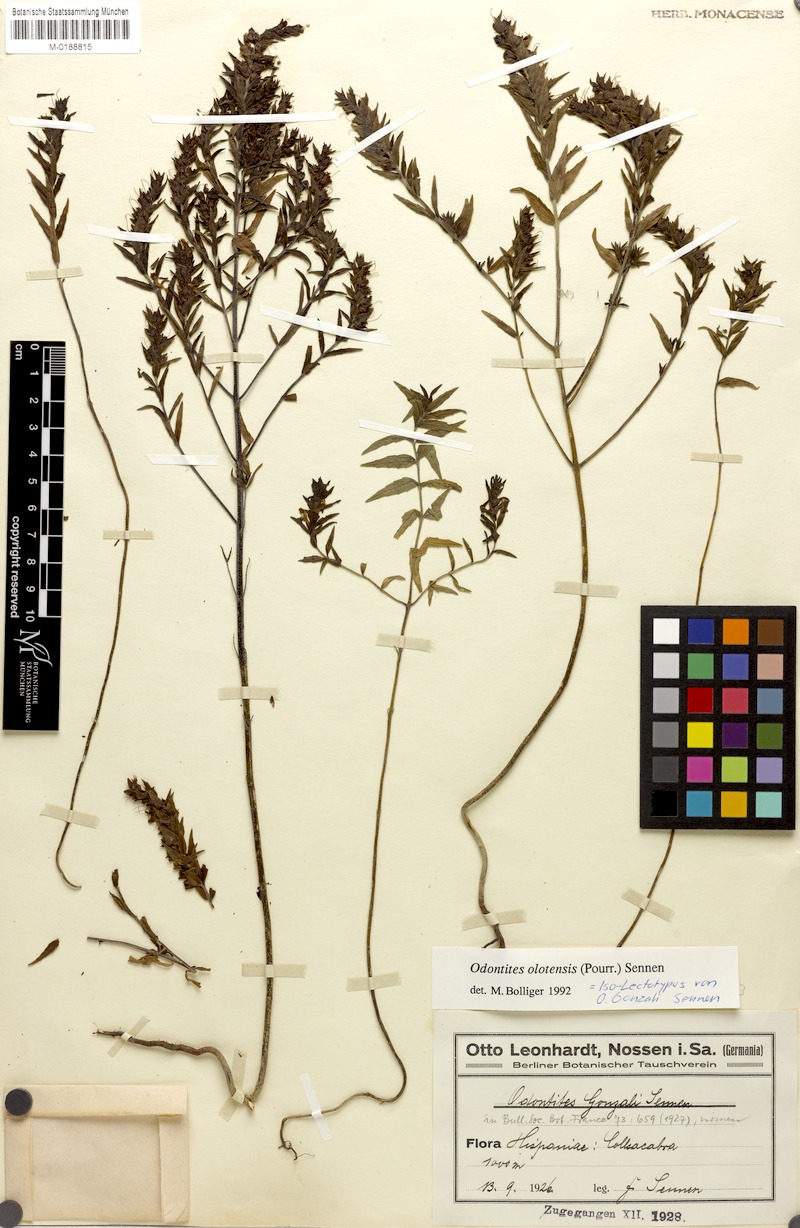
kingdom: Plantae
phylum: Tracheophyta
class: Magnoliopsida
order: Lamiales
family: Orobanchaceae
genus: Odontites
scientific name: Odontites cebennensis
